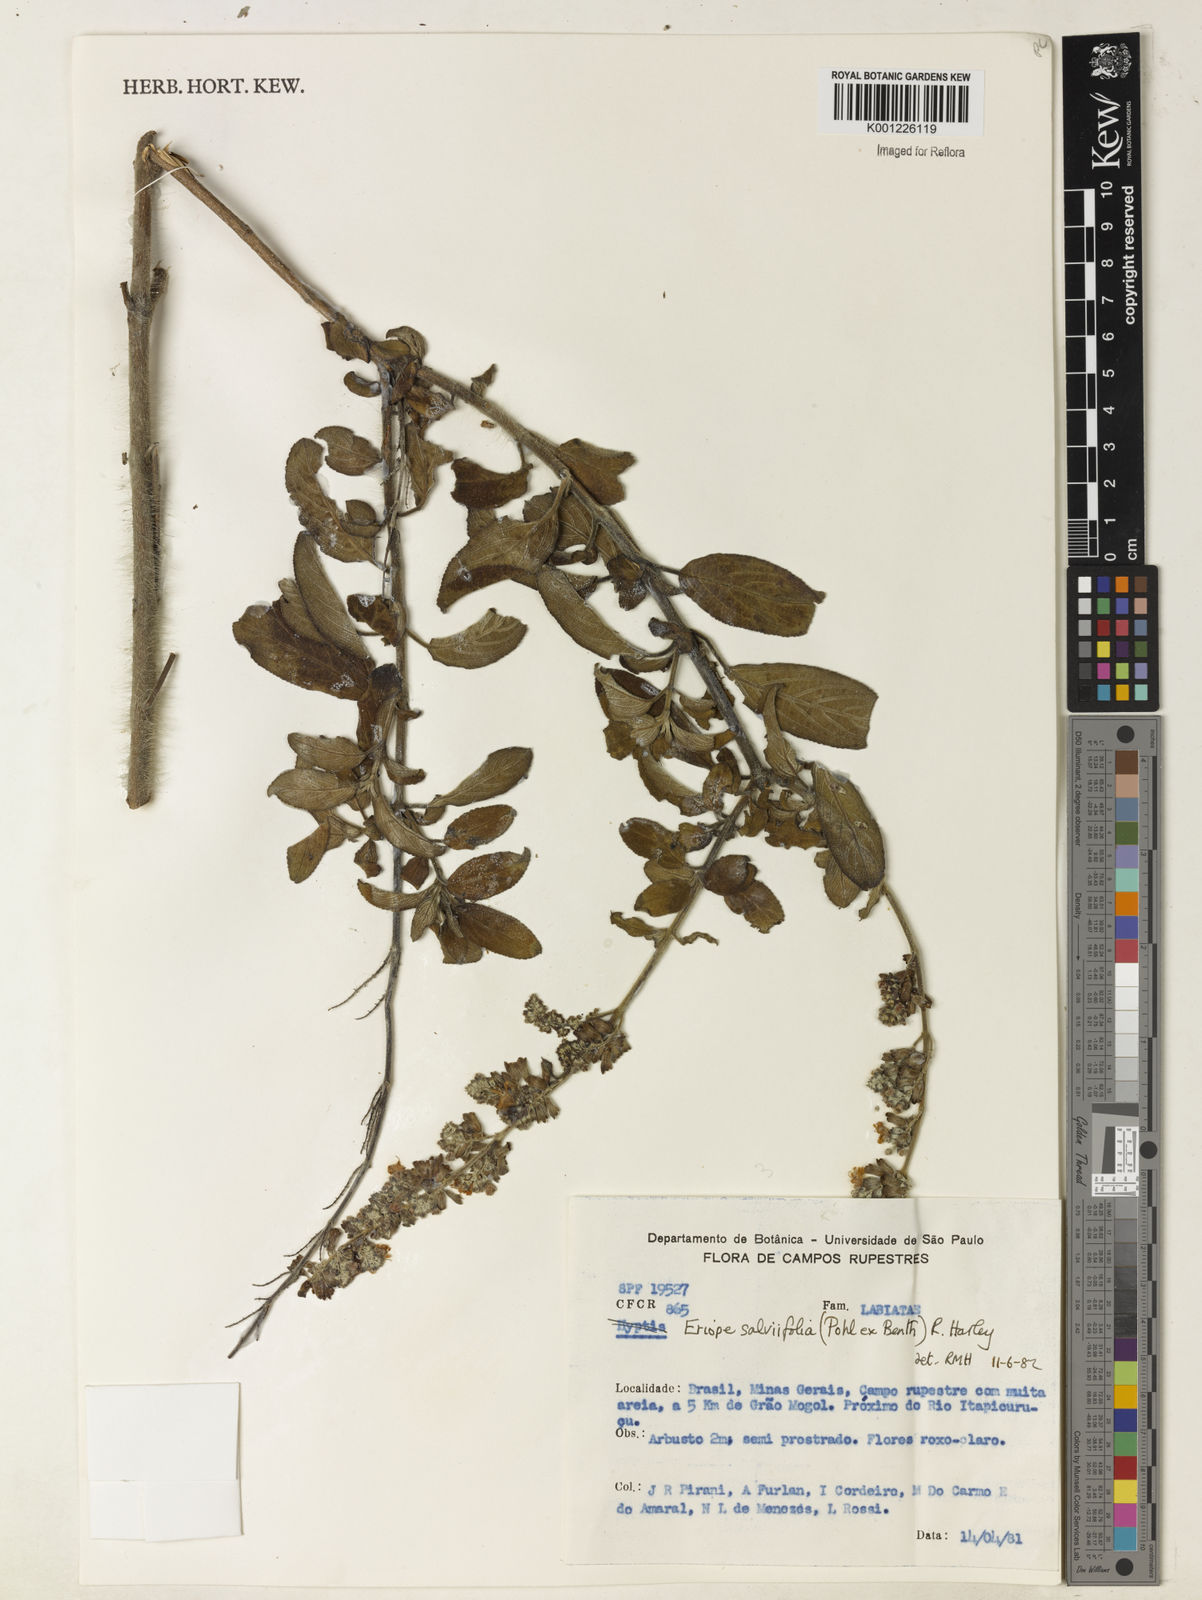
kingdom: Plantae
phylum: Tracheophyta
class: Magnoliopsida
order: Lamiales
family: Lamiaceae
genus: Eriope
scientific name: Eriope salviifolia
